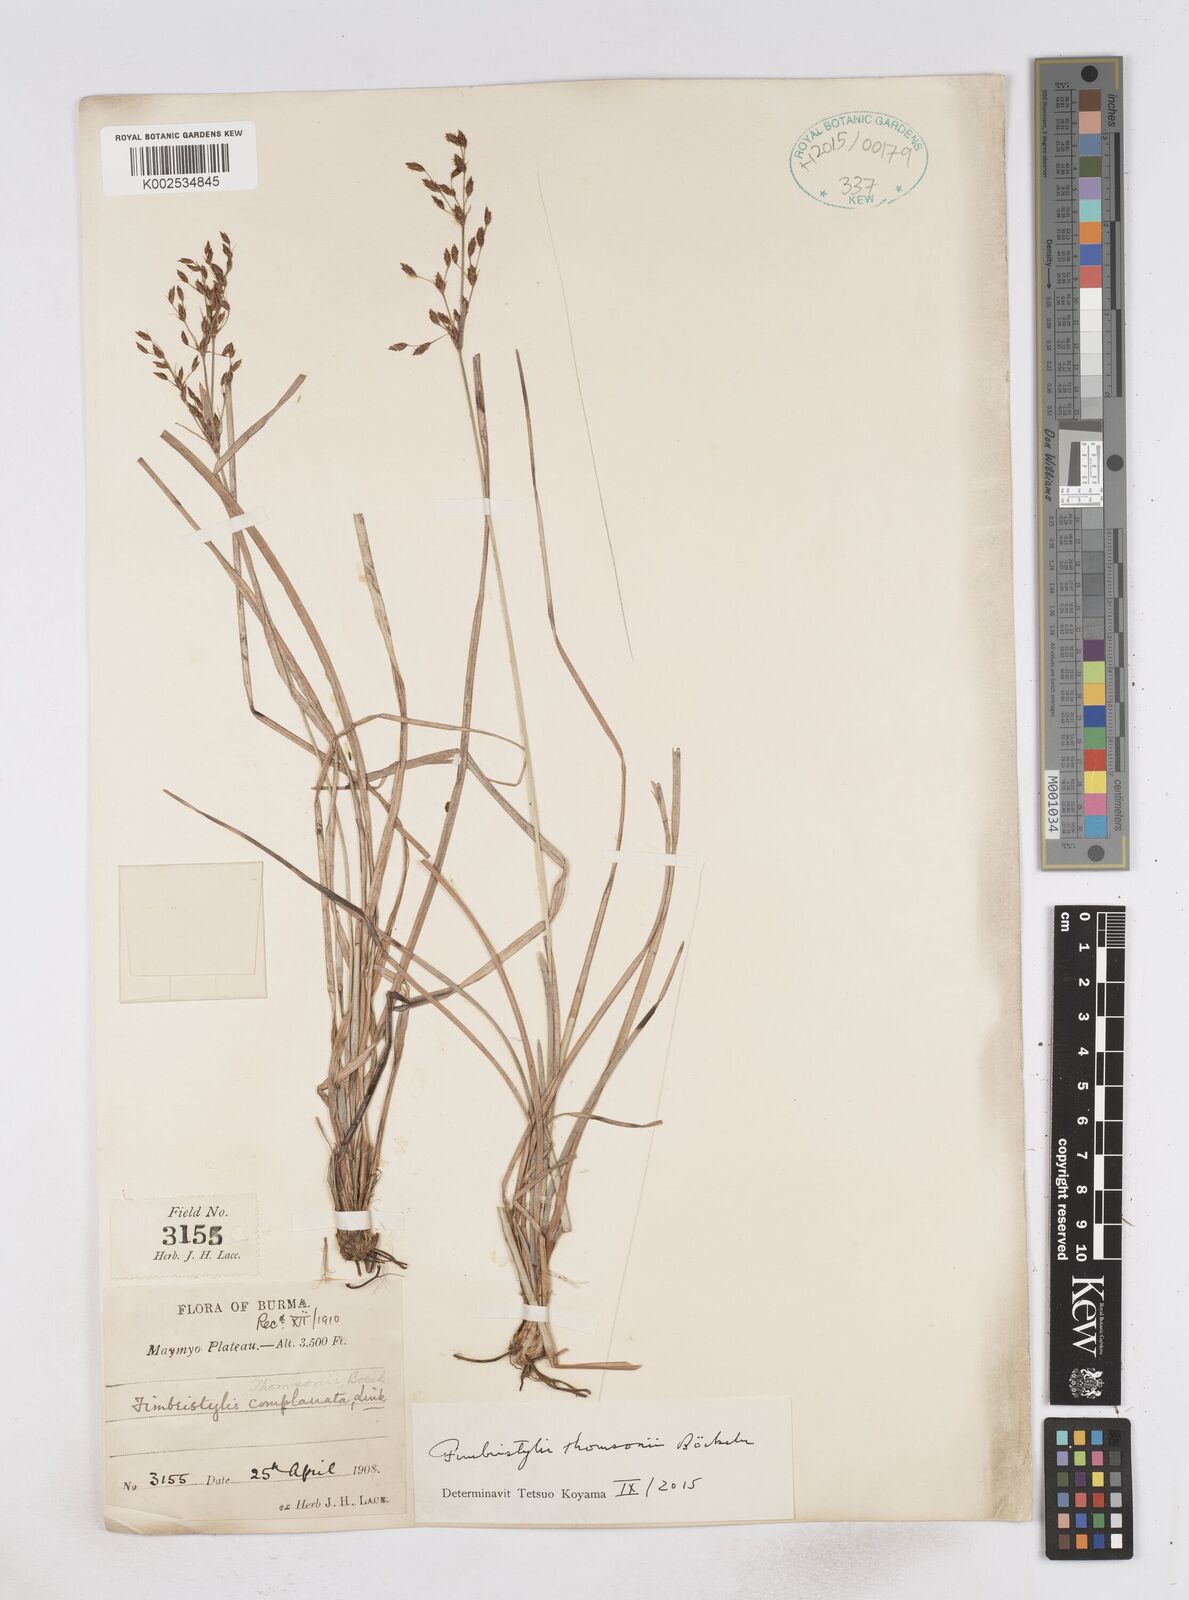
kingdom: Plantae
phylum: Tracheophyta
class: Liliopsida
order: Poales
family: Cyperaceae
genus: Fimbristylis
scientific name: Fimbristylis thomsonii
